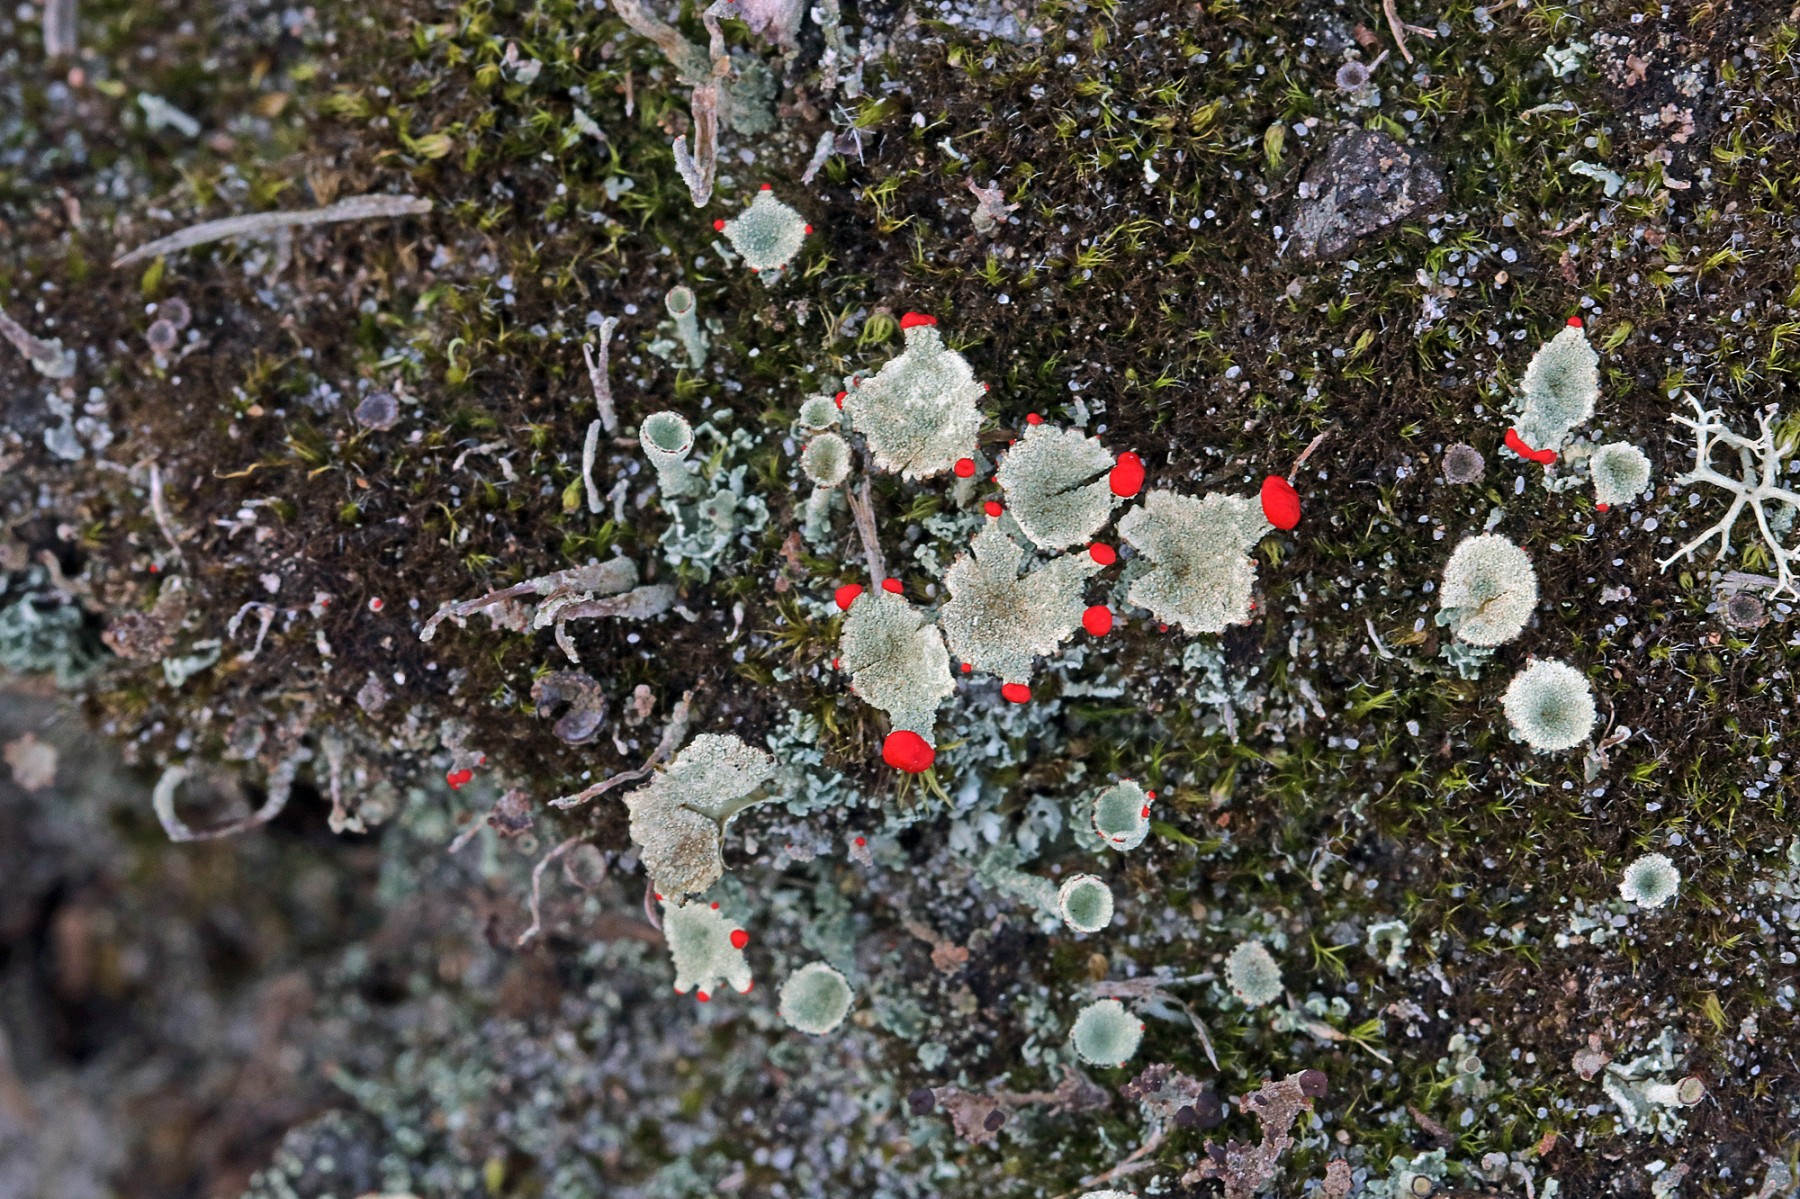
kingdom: Fungi
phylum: Ascomycota
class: Lecanoromycetes
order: Lecanorales
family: Cladoniaceae
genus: Cladonia
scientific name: Cladonia diversa
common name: rød bægerlav
